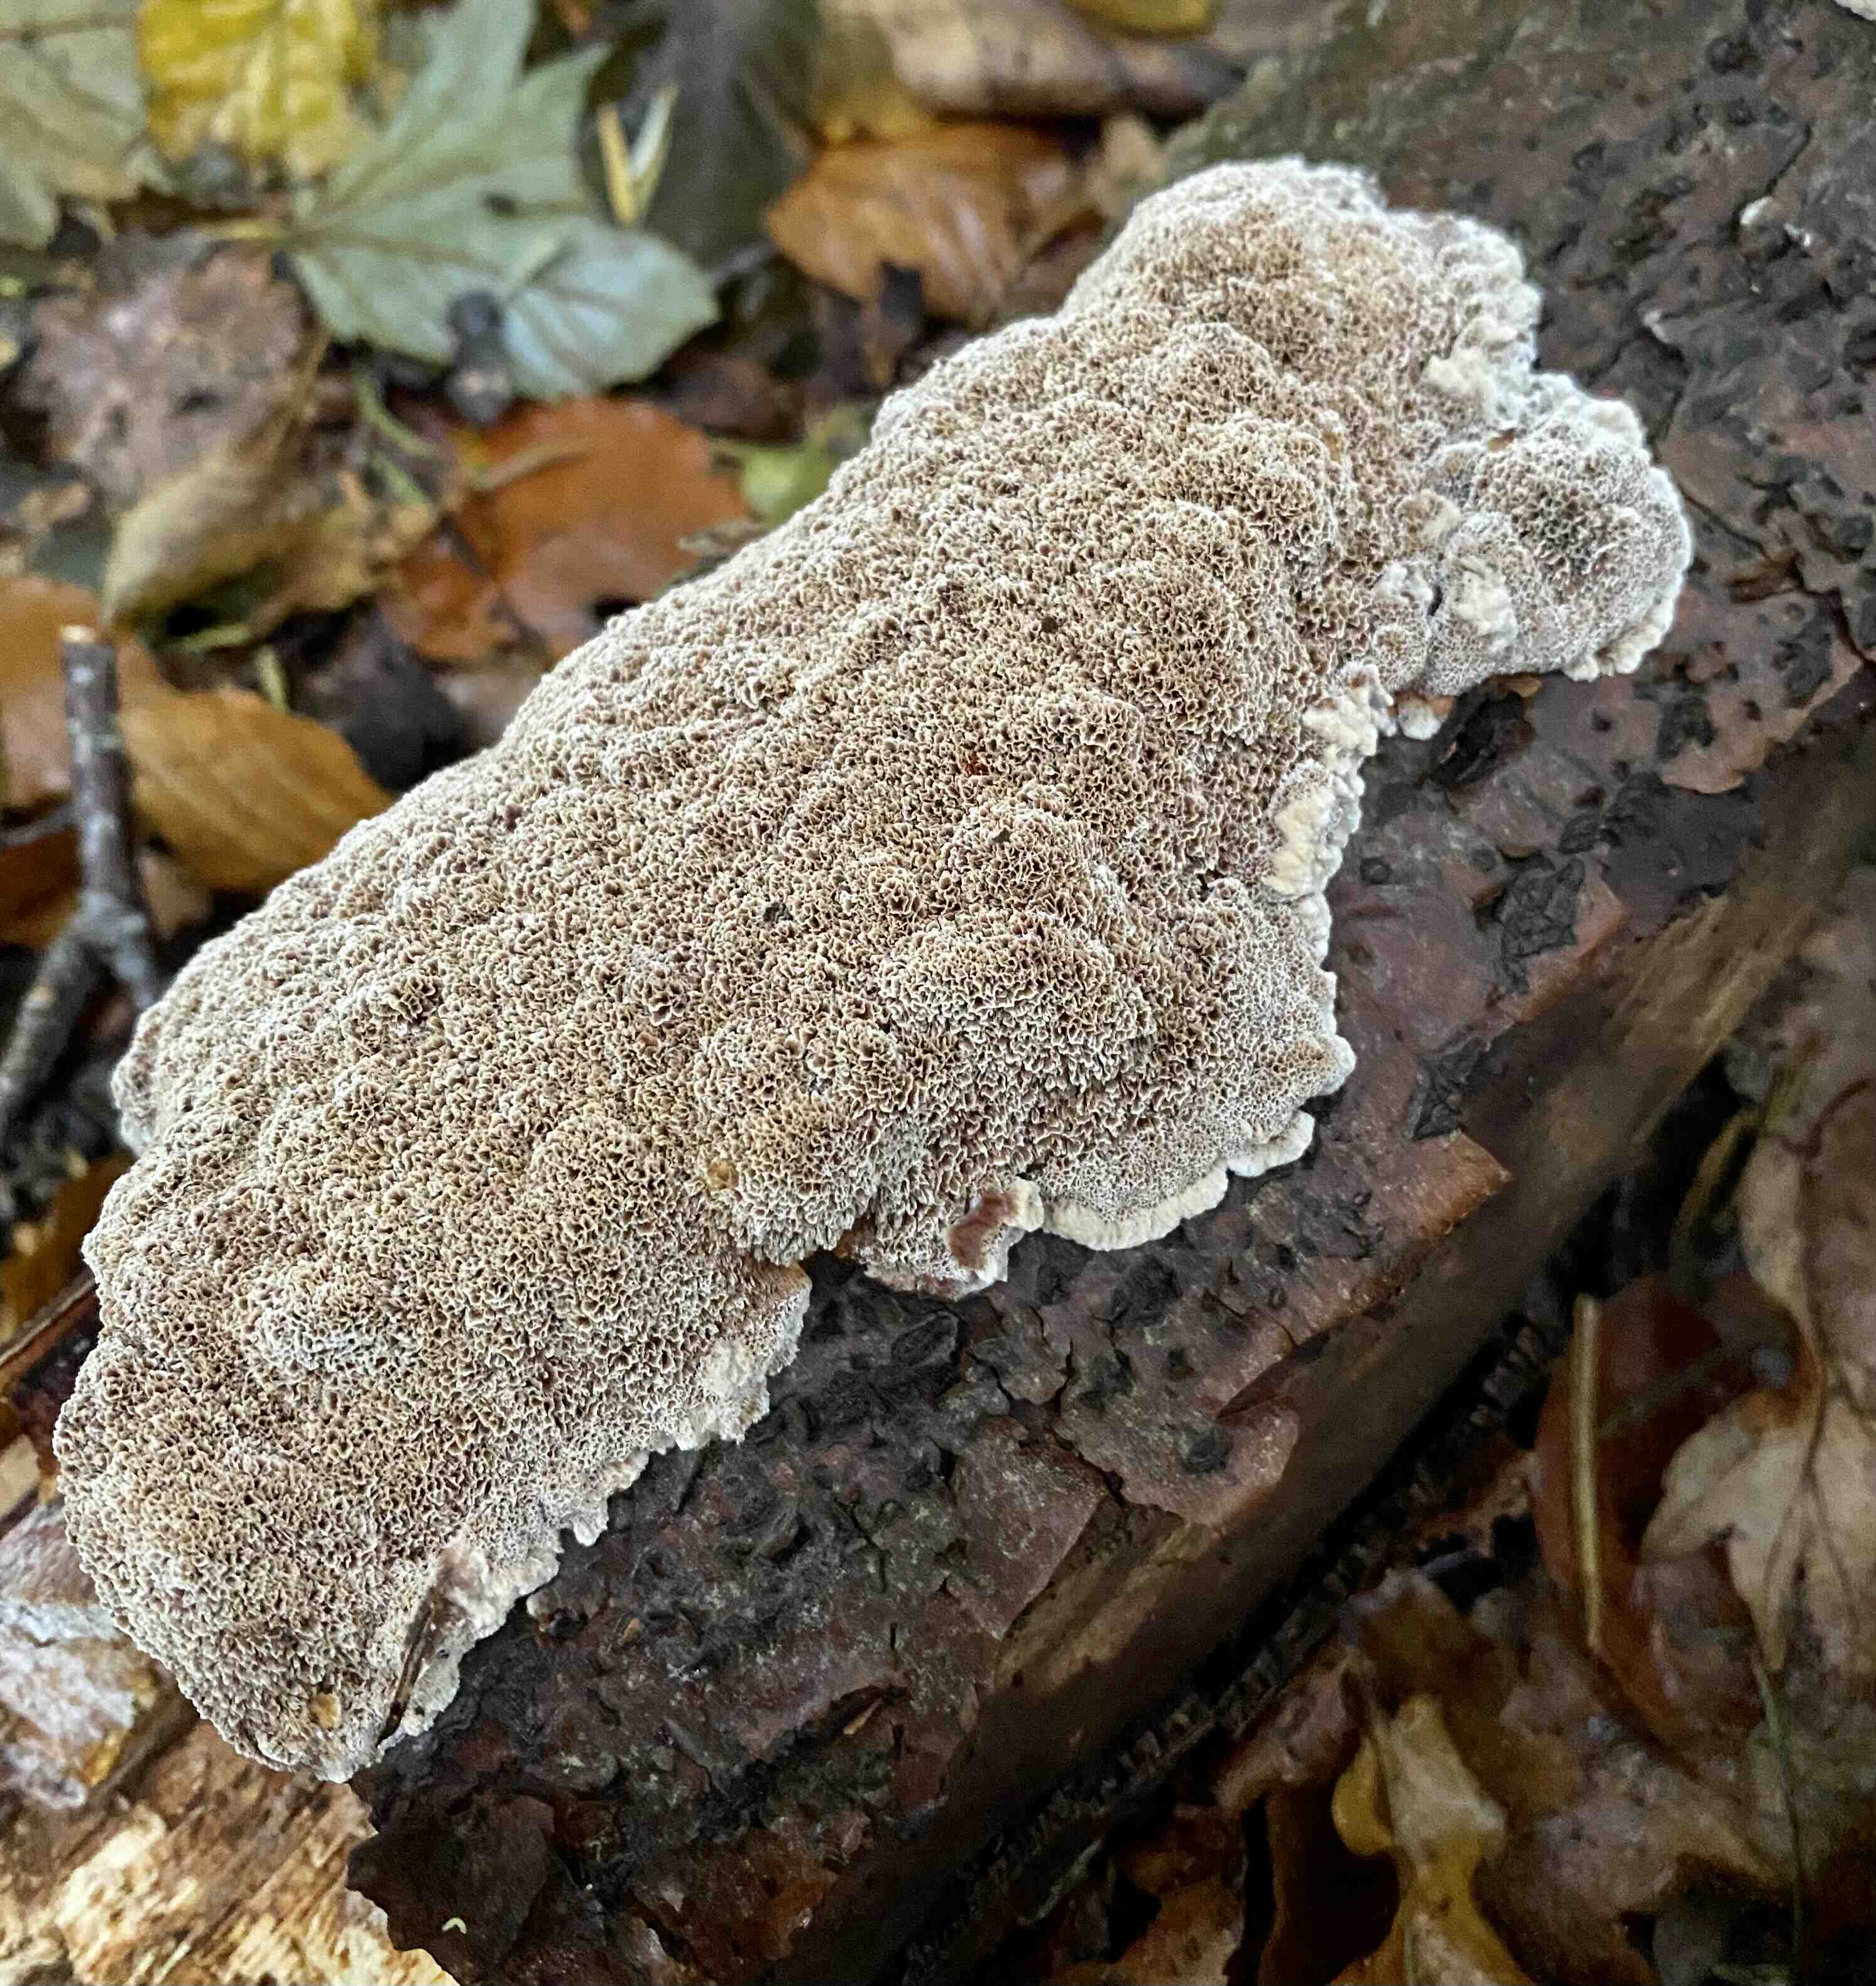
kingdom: Fungi
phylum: Basidiomycota
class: Agaricomycetes
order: Hymenochaetales
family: Hymenochaetaceae
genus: Mensularia
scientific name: Mensularia nodulosa
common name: bøge-spejlporesvamp
